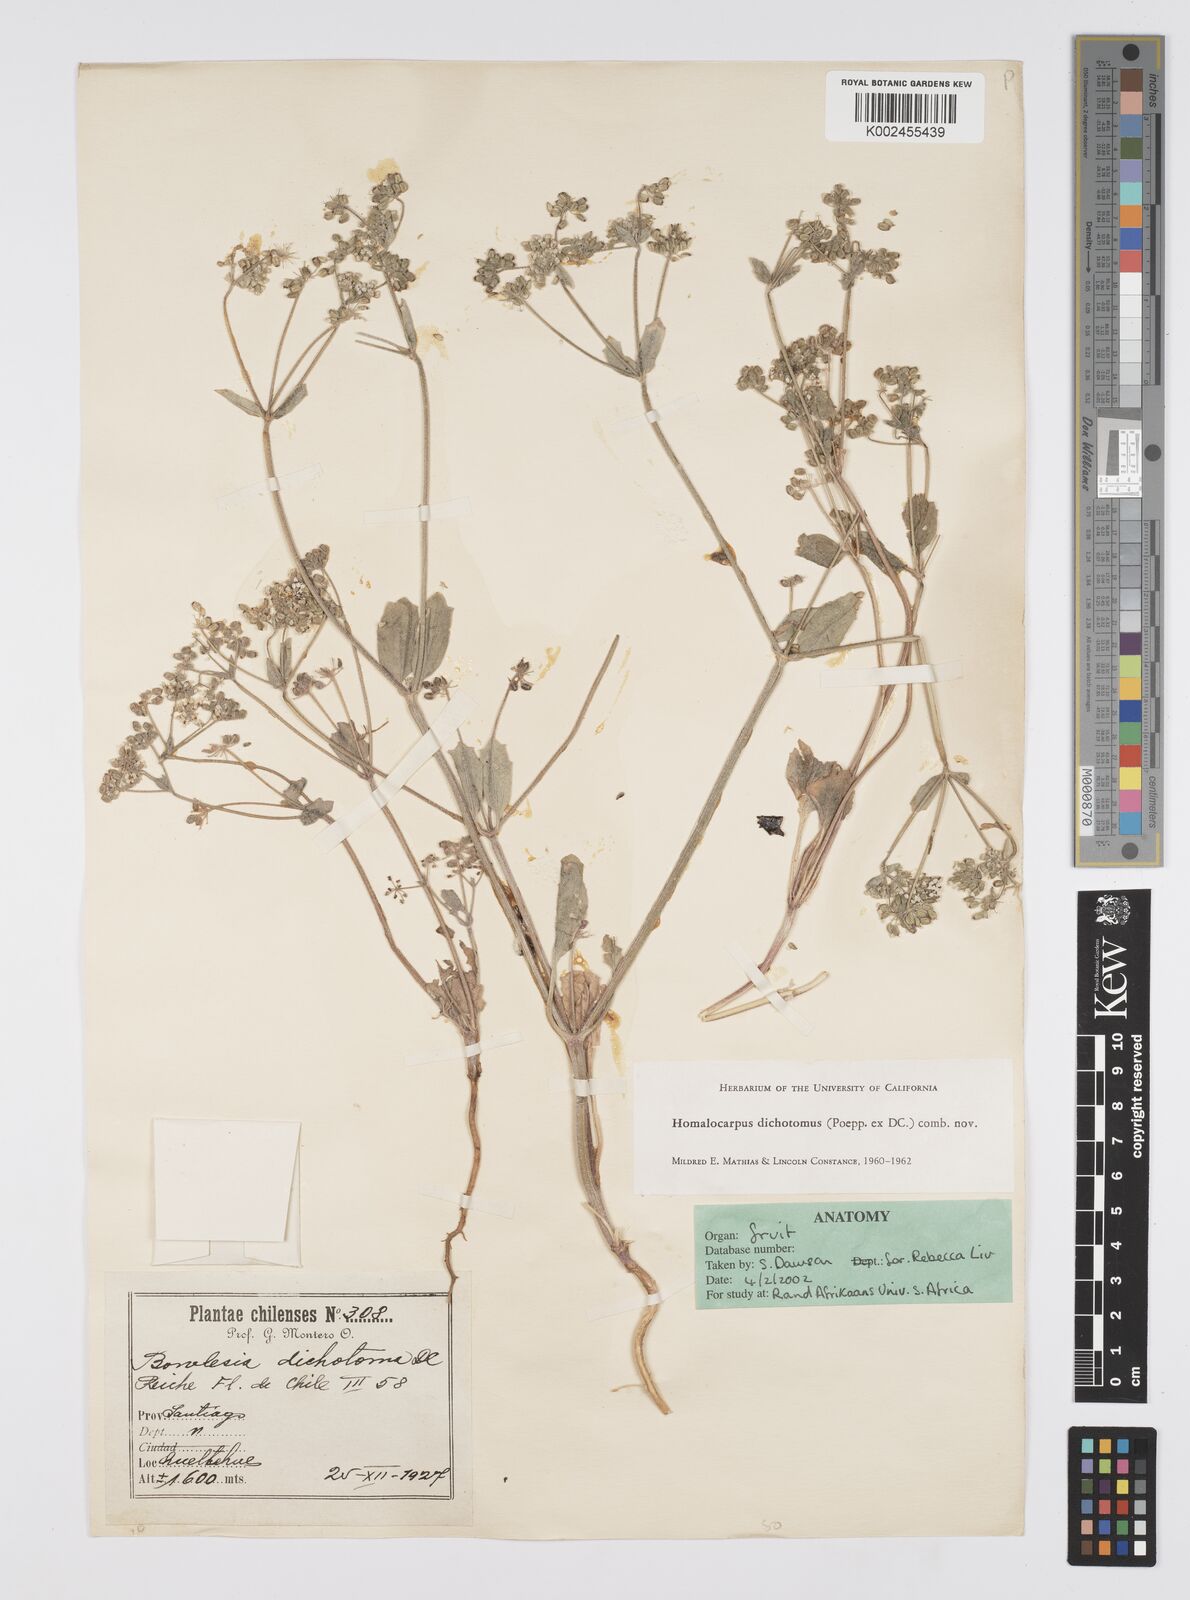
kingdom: Plantae
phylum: Tracheophyta
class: Magnoliopsida
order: Apiales
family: Apiaceae
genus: Homalocarpus
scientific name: Homalocarpus dichotomus
